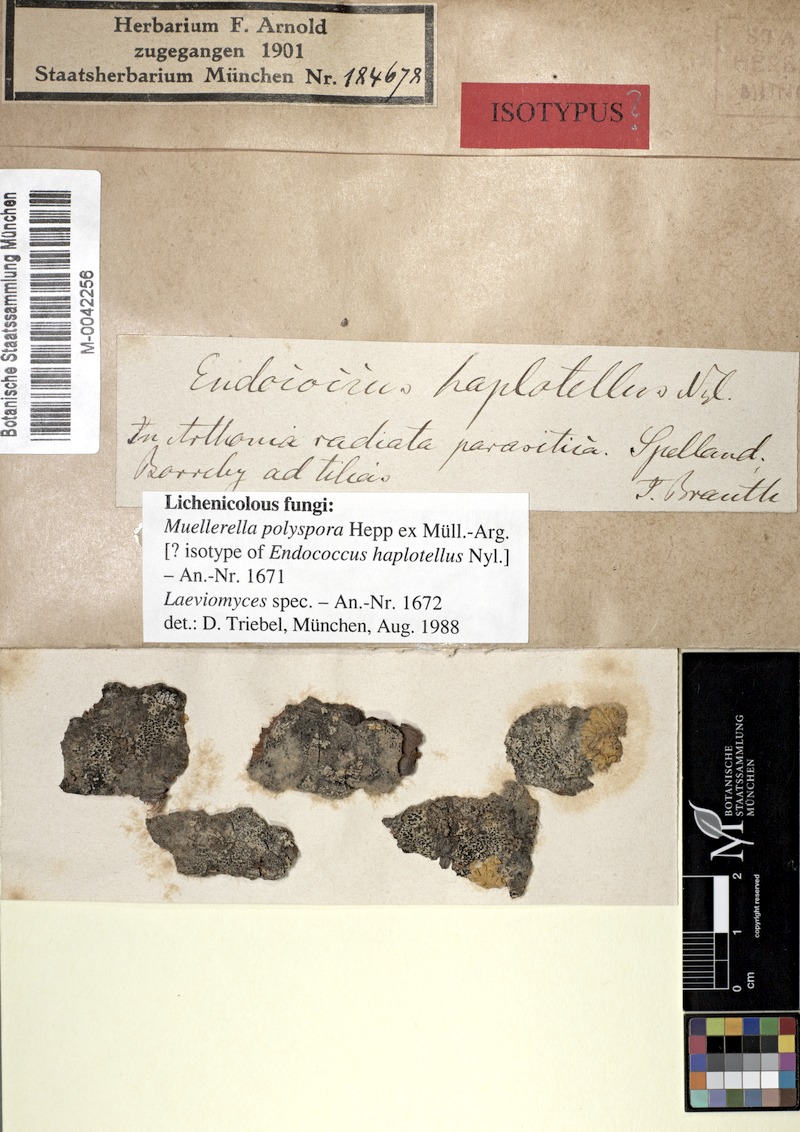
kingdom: Fungi
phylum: Ascomycota
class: Eurotiomycetes
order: Chaetothyriales
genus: Lichenodiplis
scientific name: Lichenodiplis
